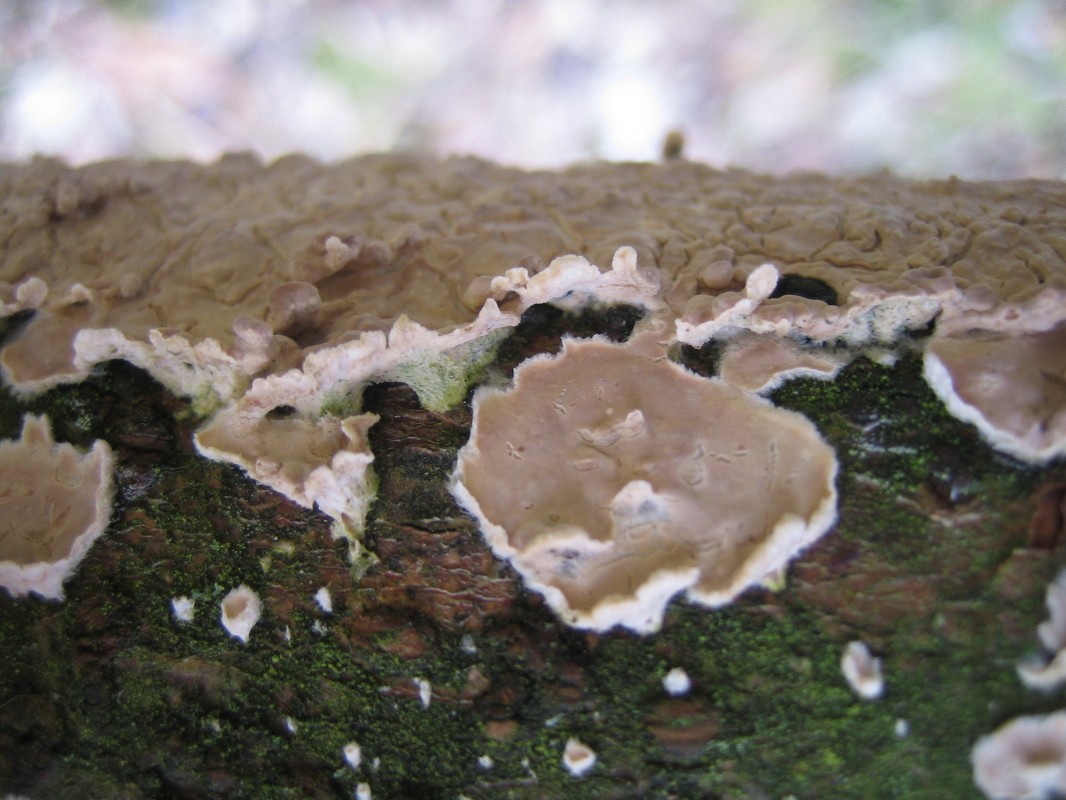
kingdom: Fungi
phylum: Basidiomycota
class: Agaricomycetes
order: Agaricales
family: Physalacriaceae
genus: Cylindrobasidium
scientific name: Cylindrobasidium evolvens
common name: sprækkehinde
